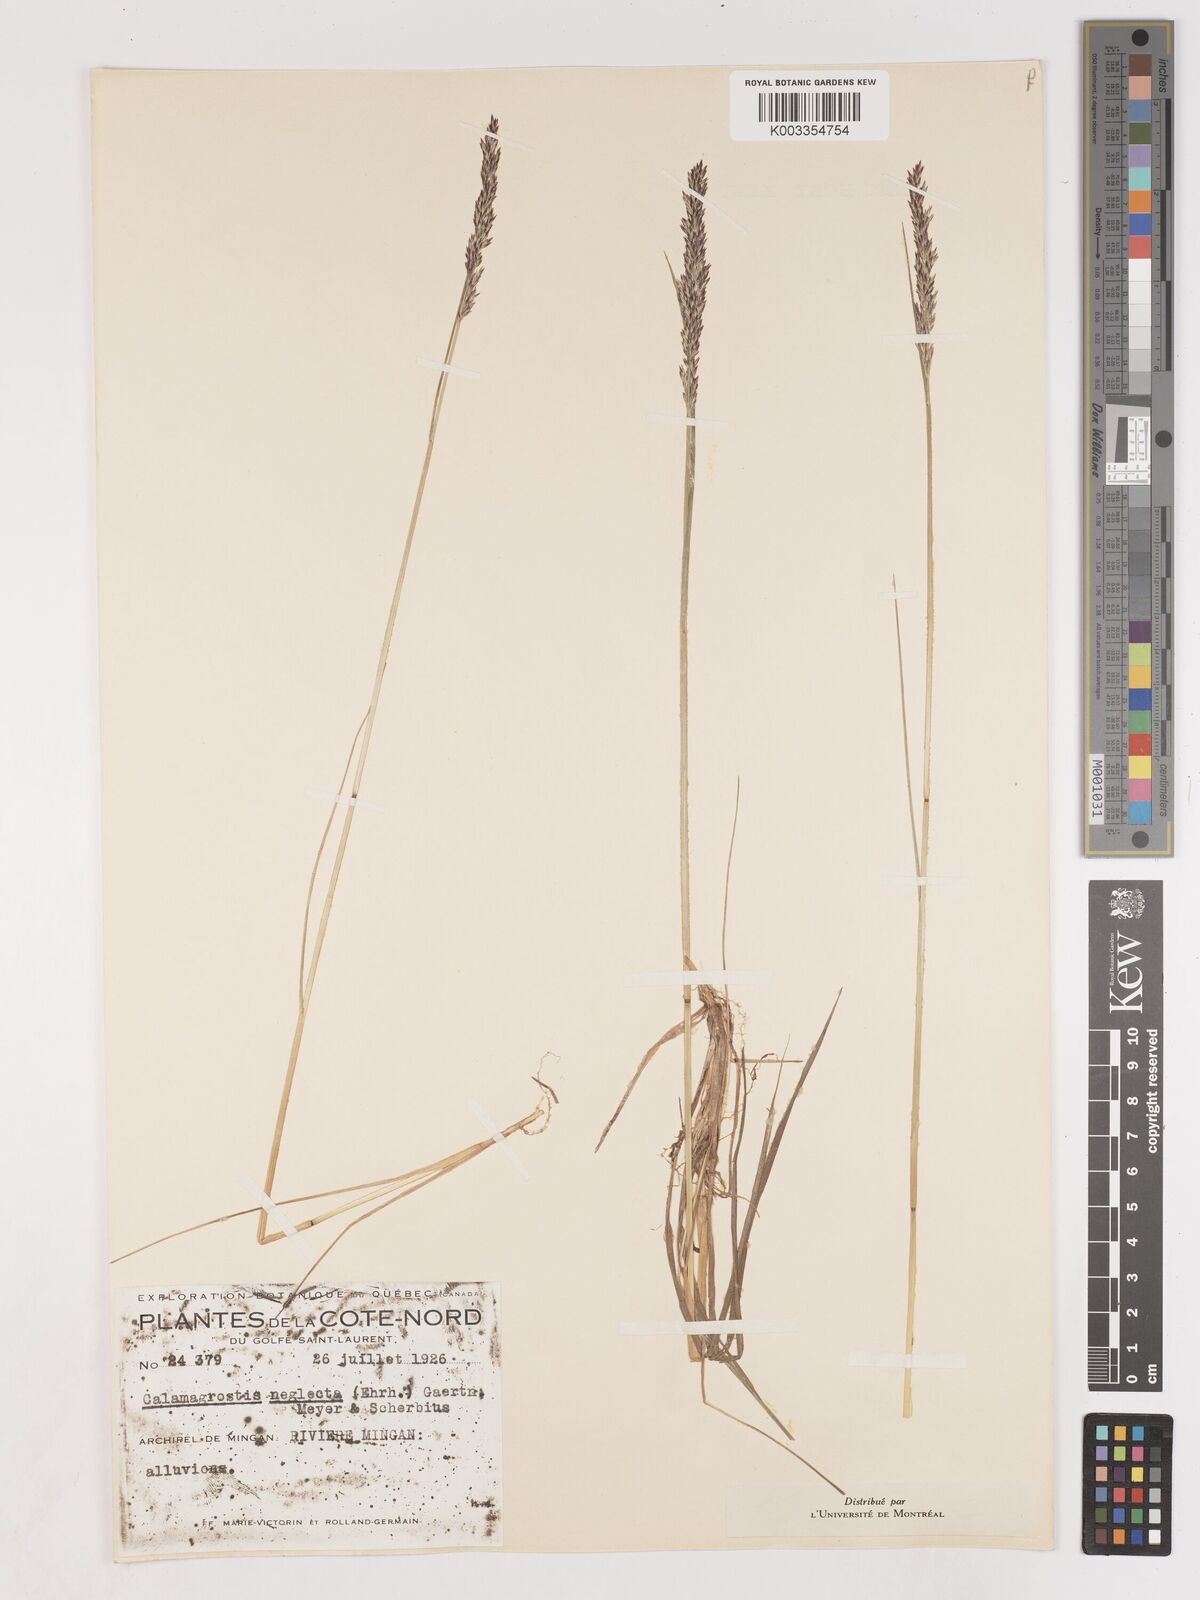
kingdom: Plantae
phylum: Tracheophyta
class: Liliopsida
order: Poales
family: Poaceae
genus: Cinnagrostis
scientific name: Cinnagrostis recta
